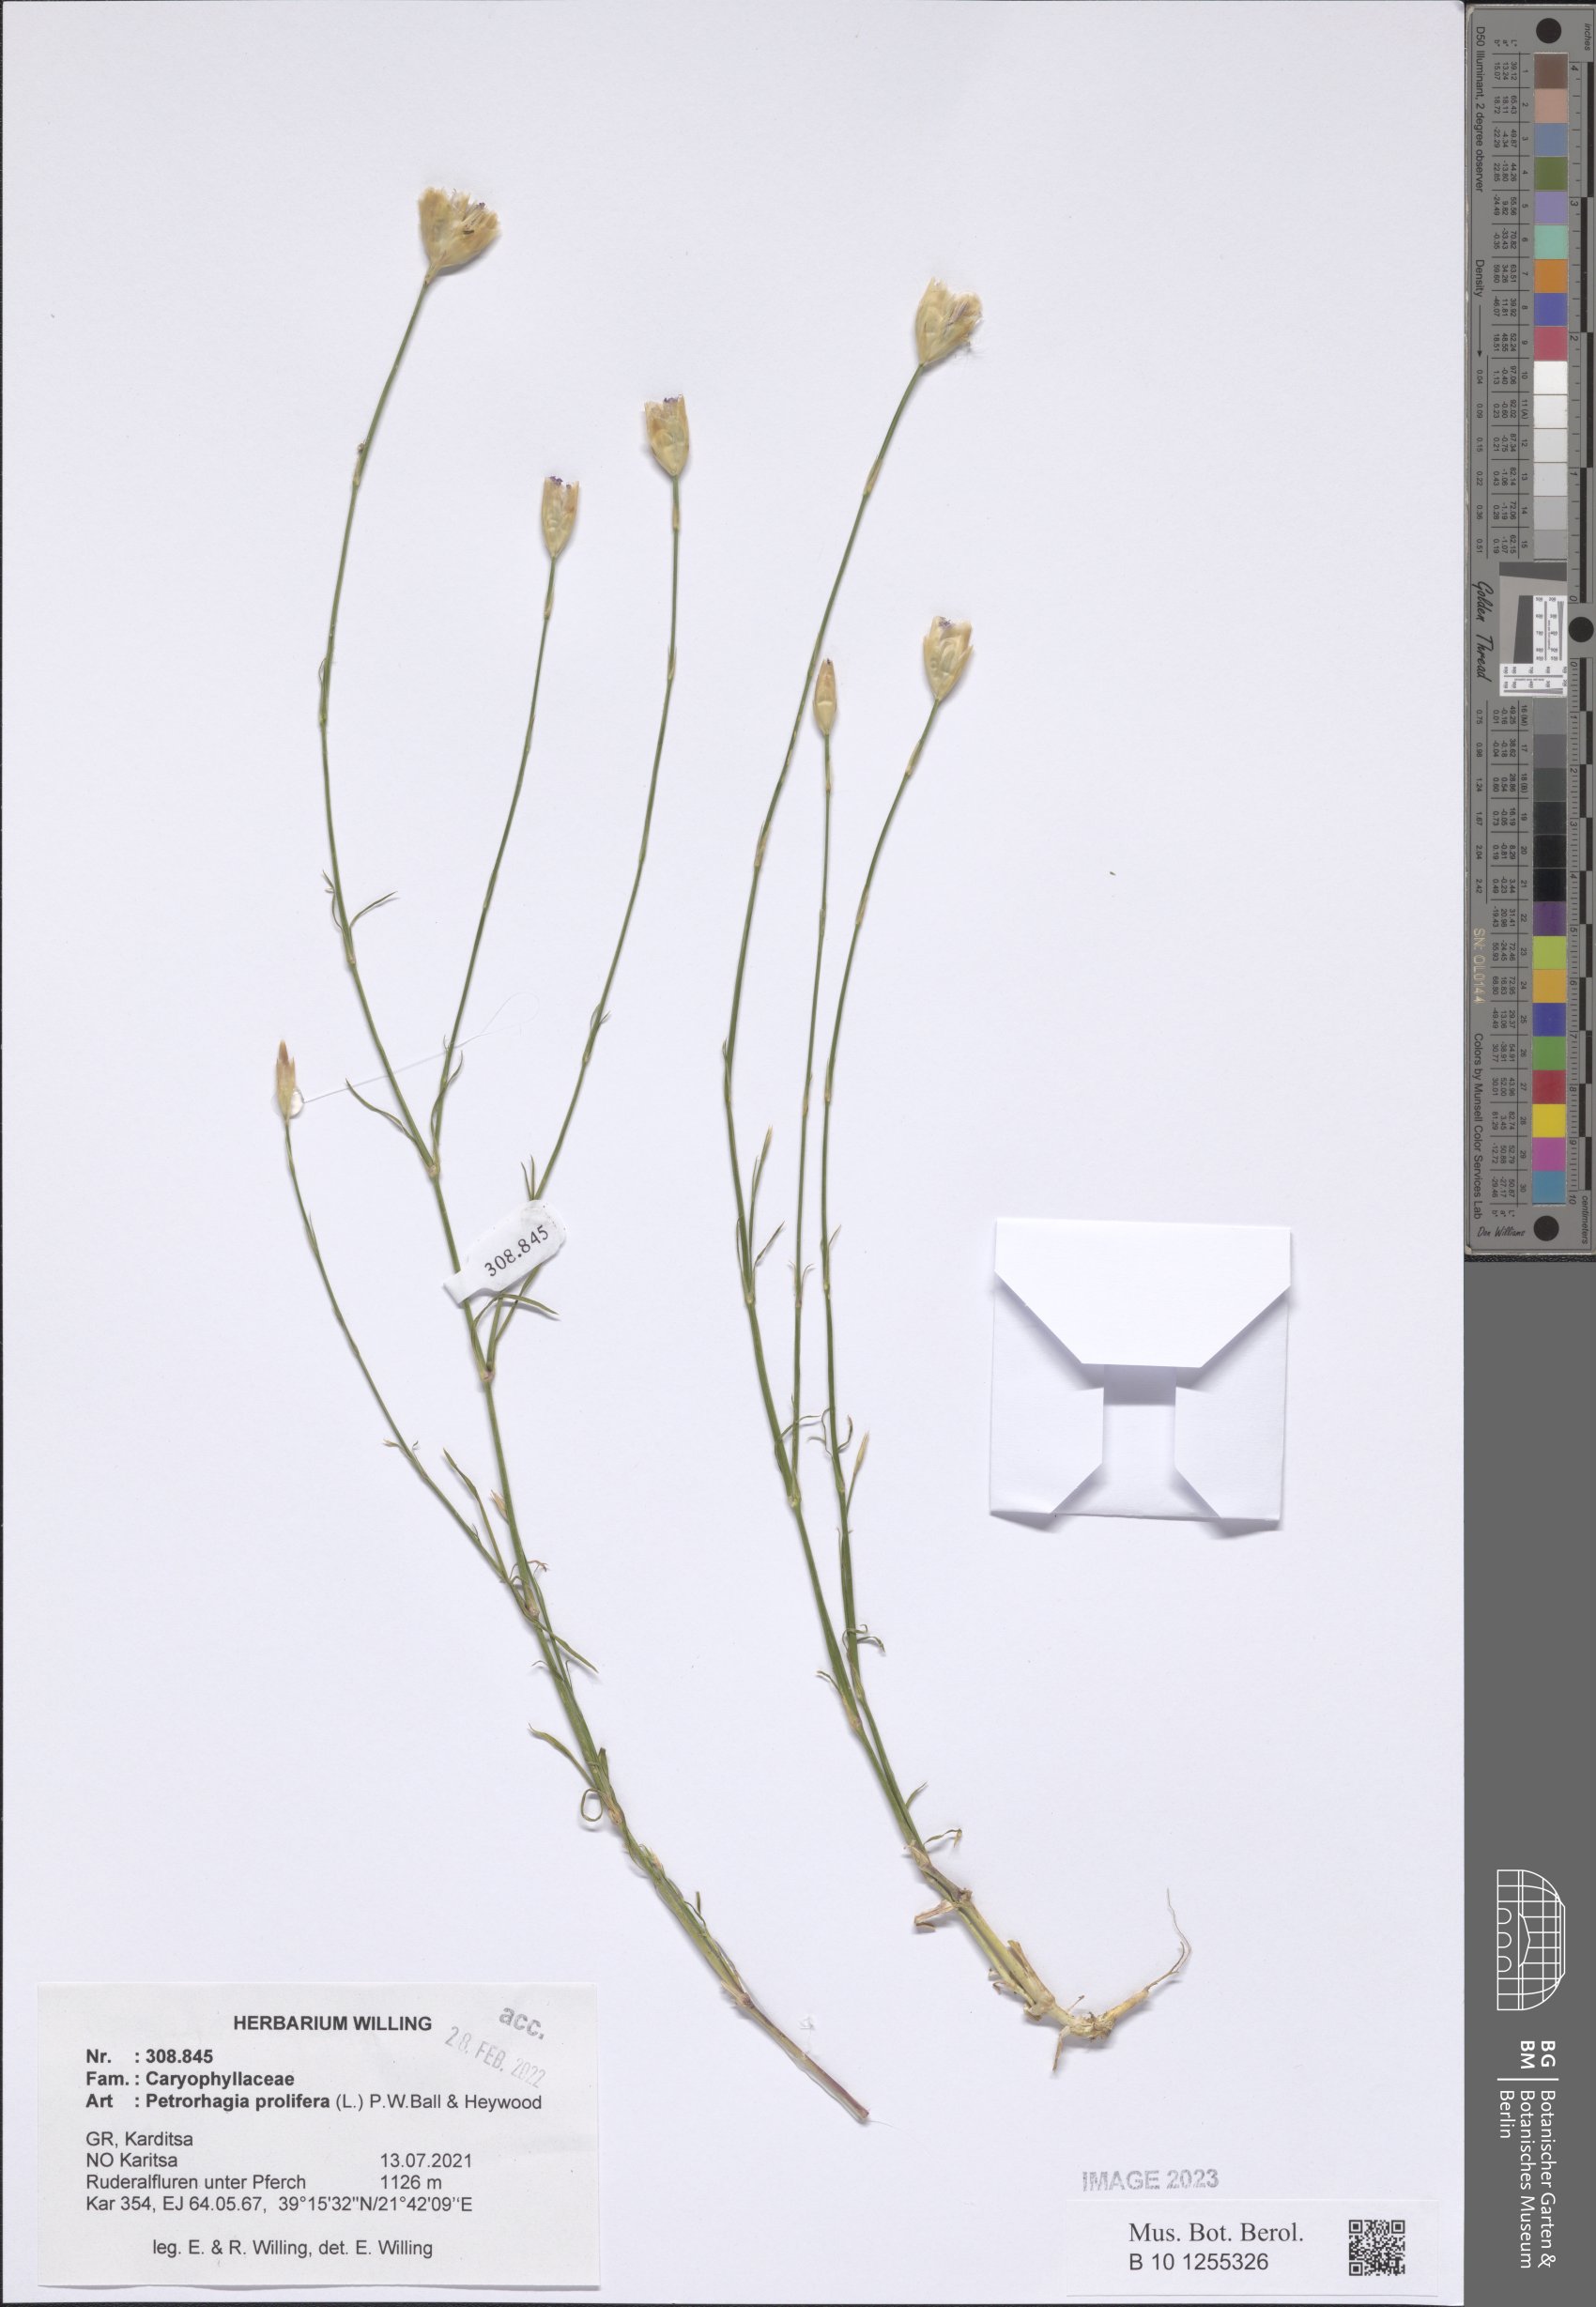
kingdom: Plantae
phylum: Tracheophyta
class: Magnoliopsida
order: Caryophyllales
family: Caryophyllaceae
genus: Petrorhagia
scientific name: Petrorhagia prolifera
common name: Proliferous pink
